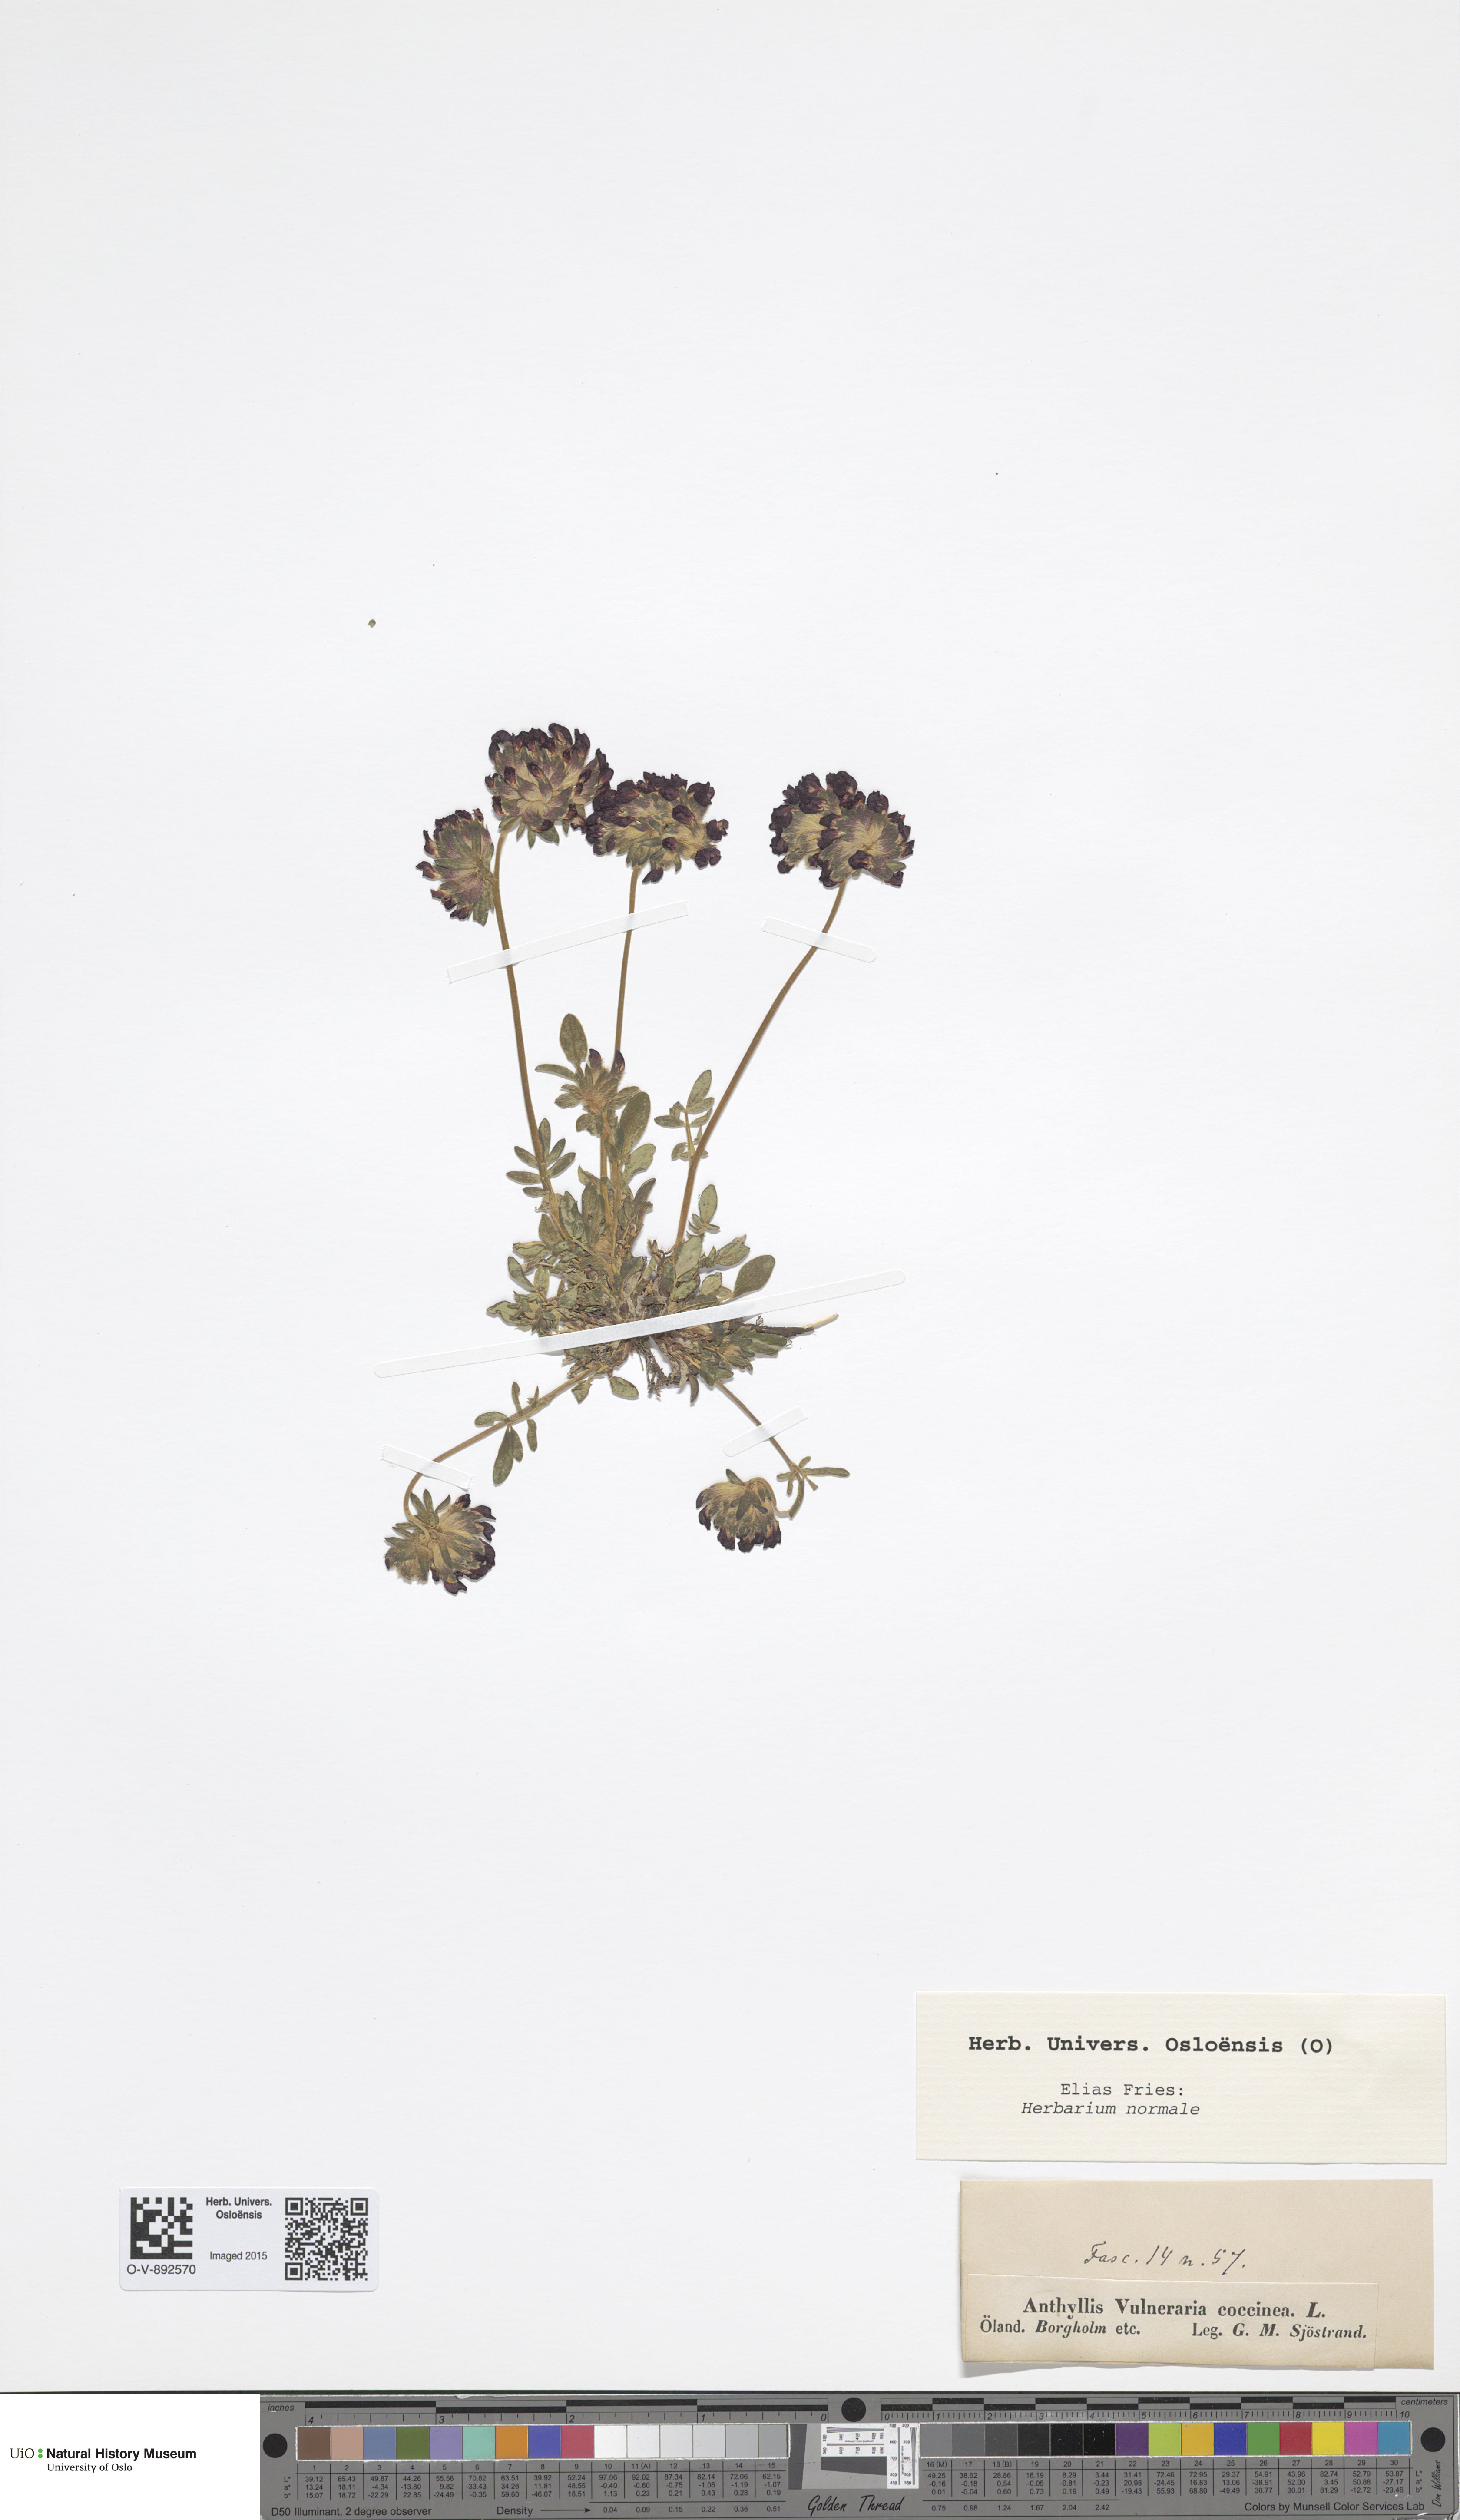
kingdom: Plantae
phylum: Tracheophyta
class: Magnoliopsida
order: Fabales
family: Fabaceae
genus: Anthyllis
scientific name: Anthyllis vulneraria
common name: Kidney vetch
